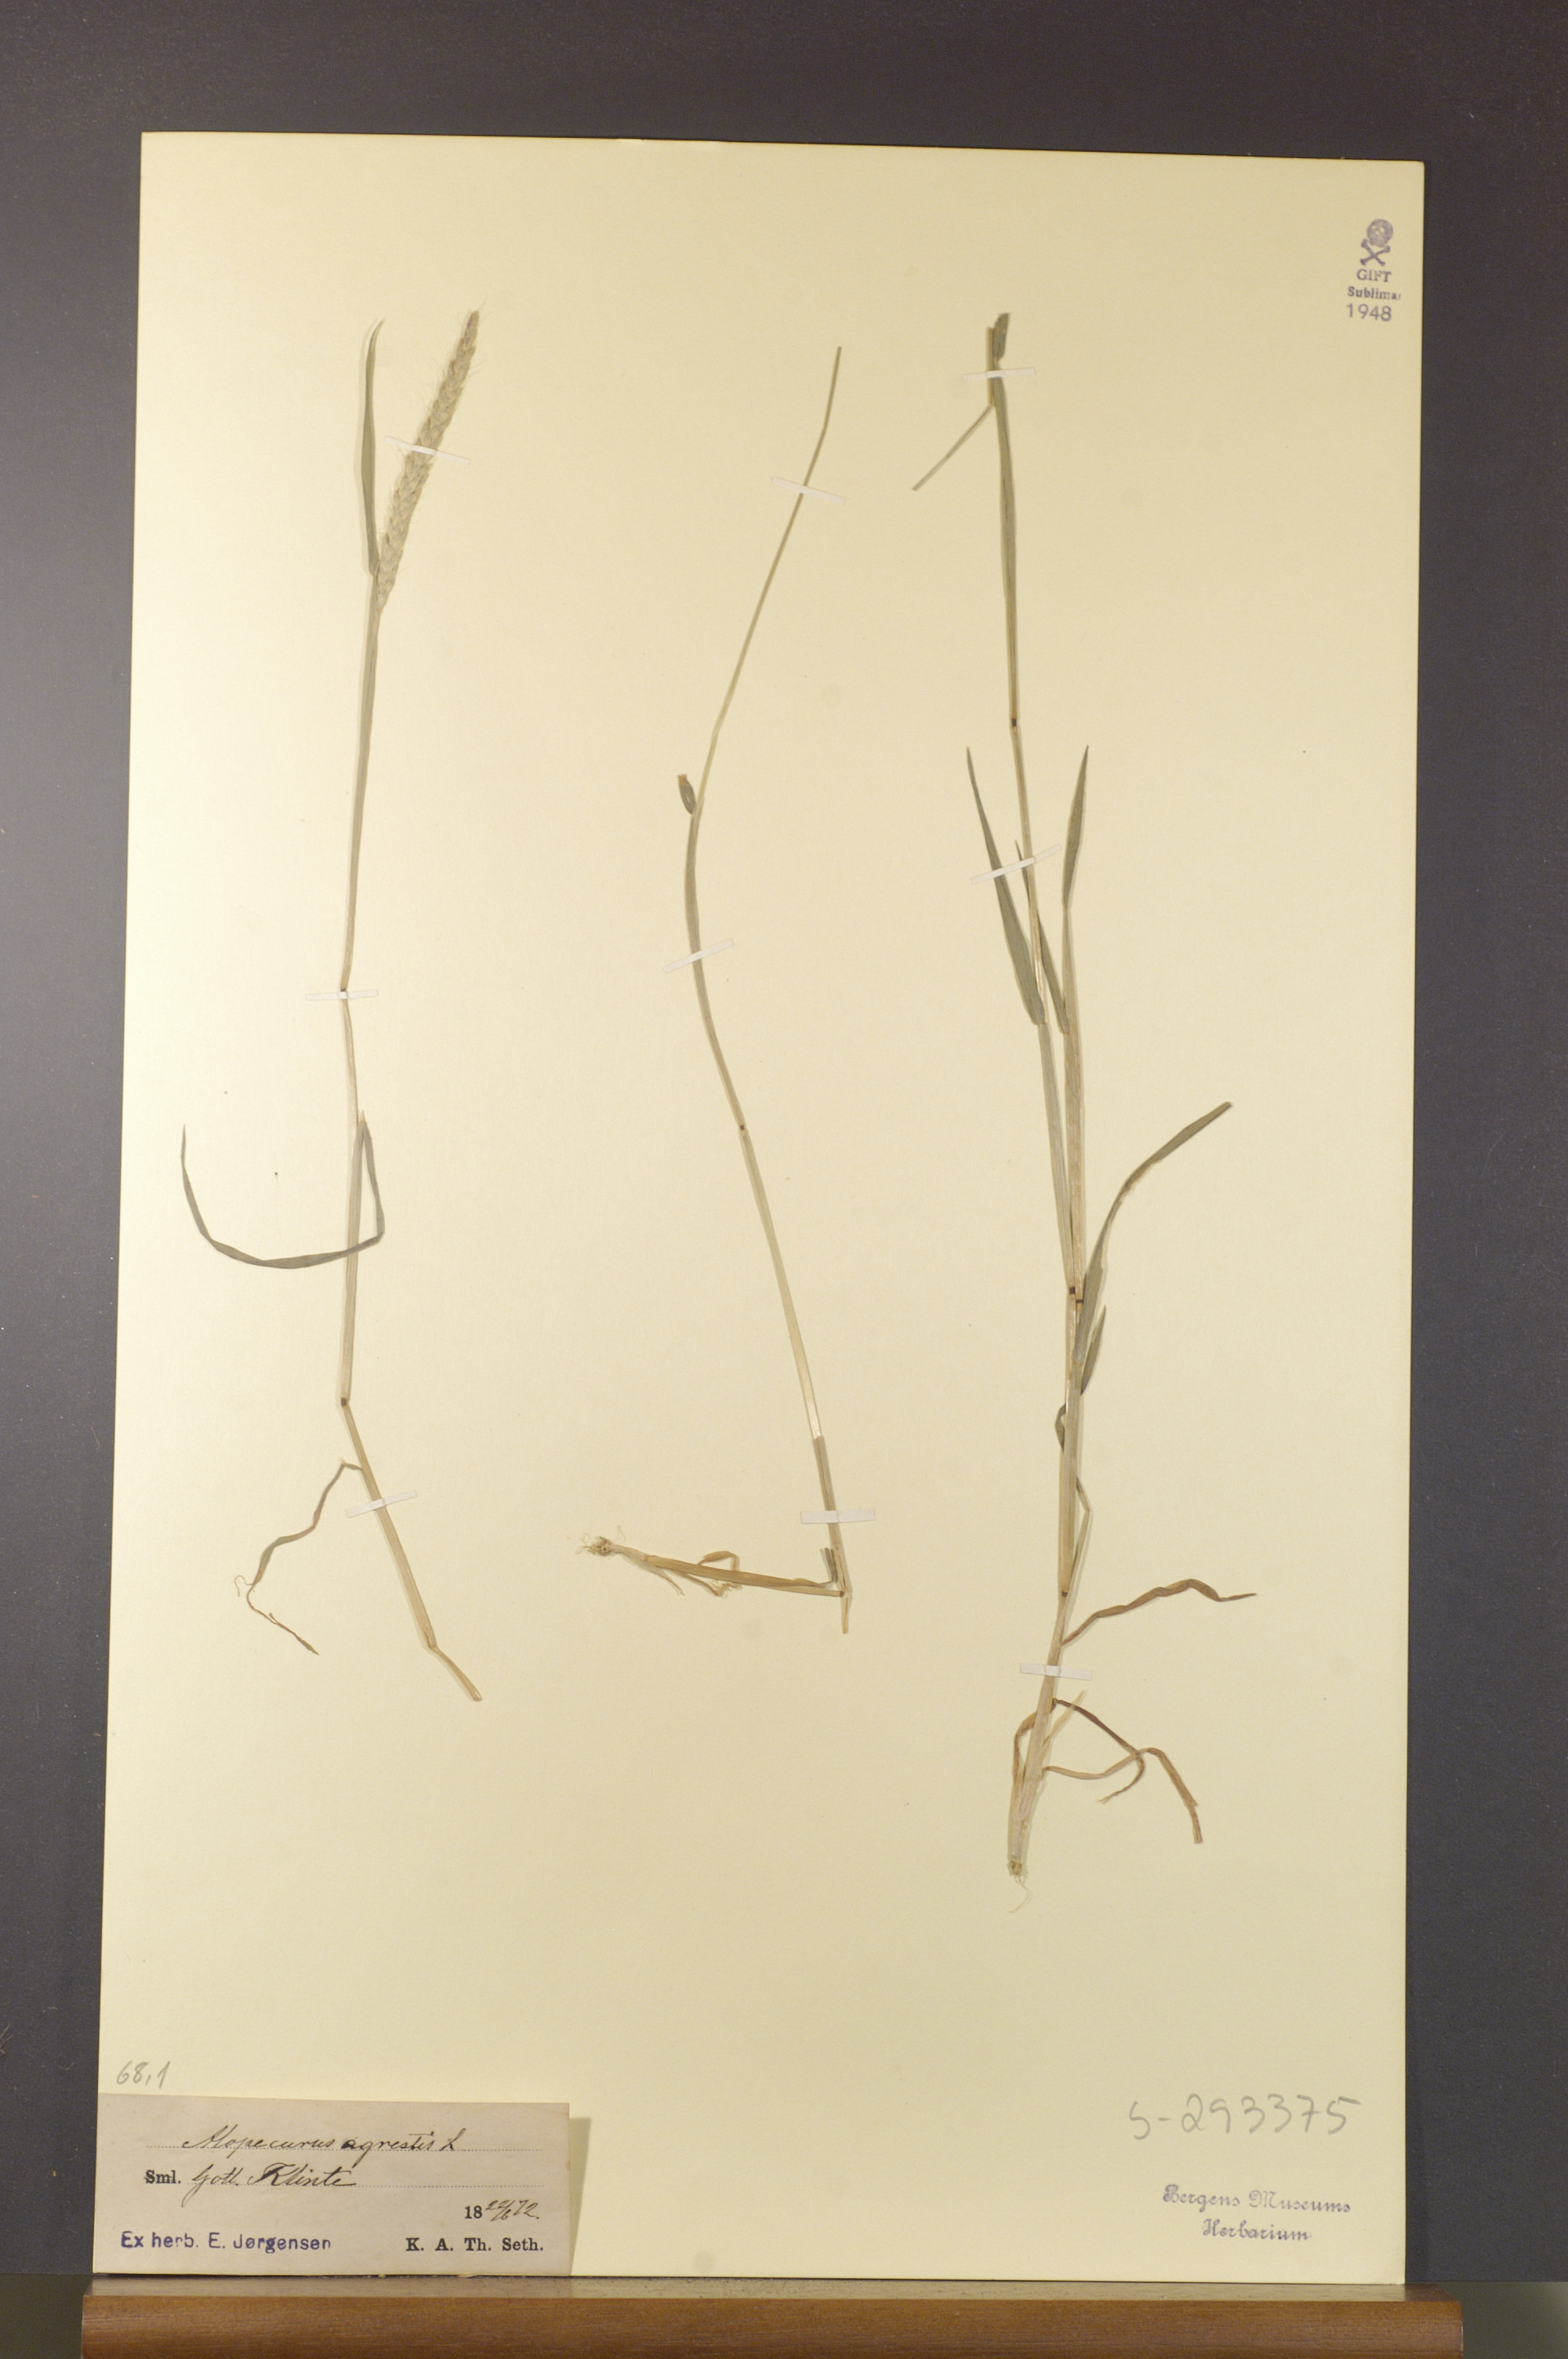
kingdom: Plantae
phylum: Tracheophyta
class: Liliopsida
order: Poales
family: Poaceae
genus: Alopecurus
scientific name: Alopecurus myosuroides
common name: Black-grass
